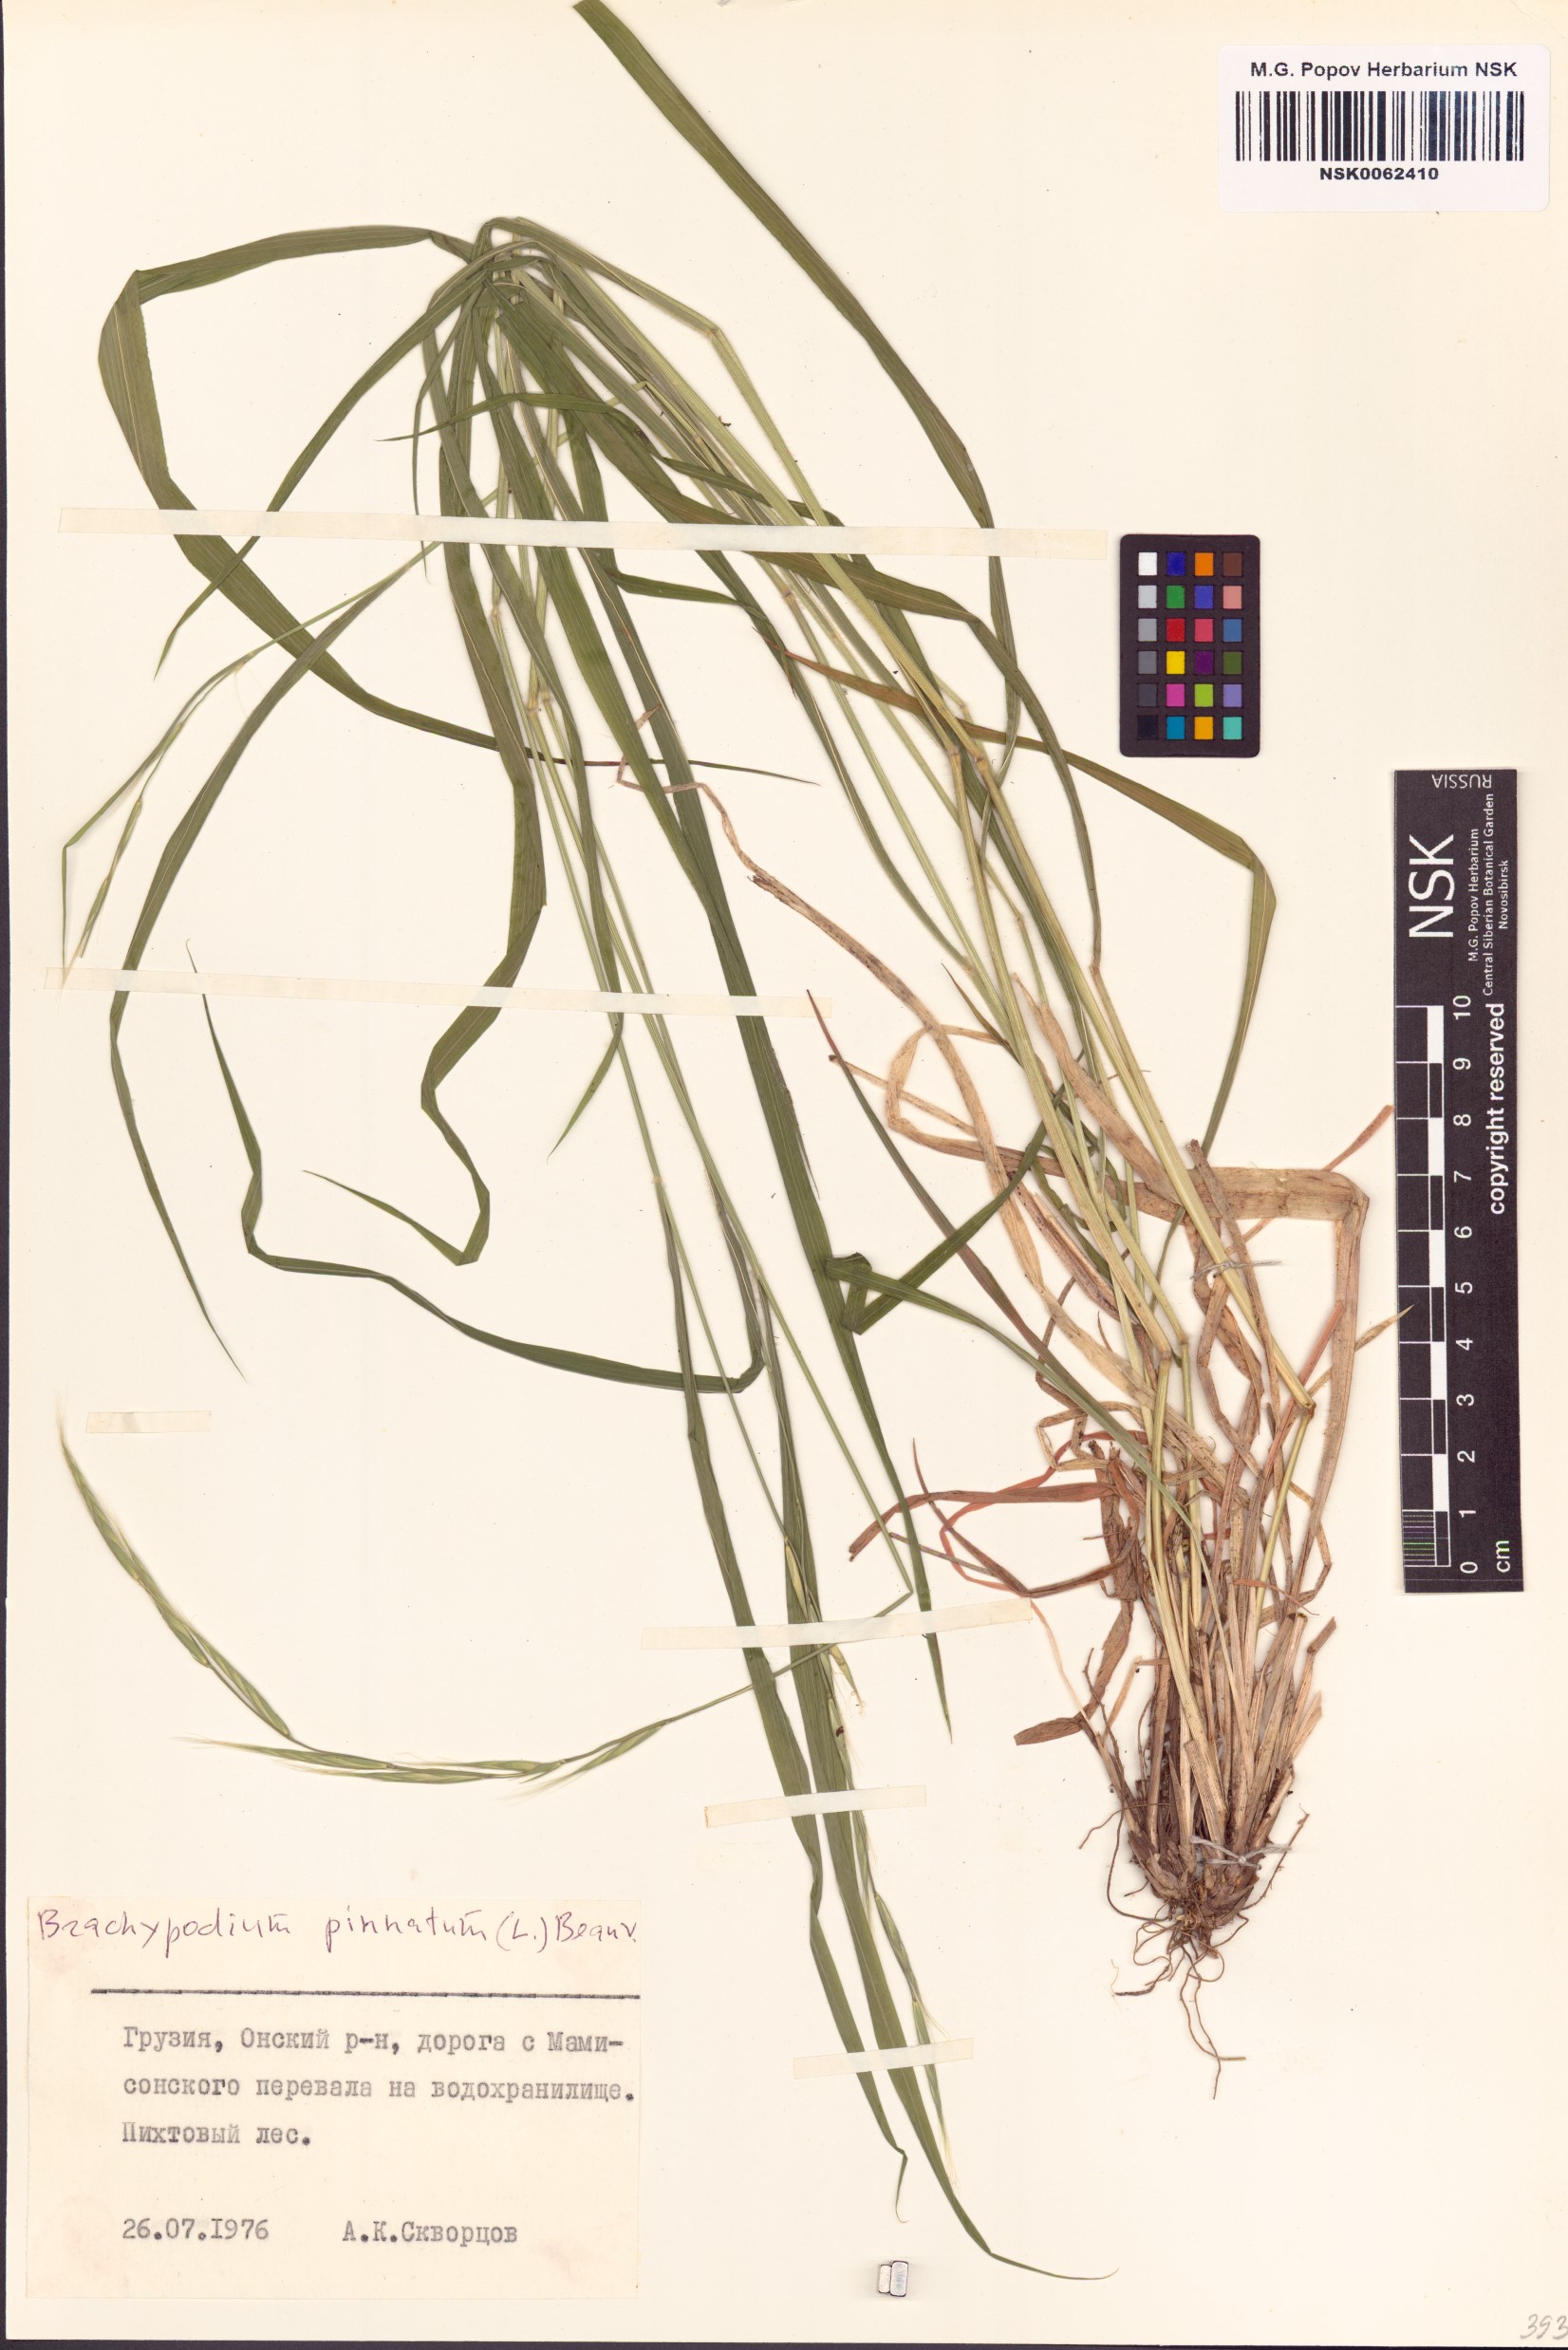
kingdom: Plantae
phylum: Tracheophyta
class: Liliopsida
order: Poales
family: Poaceae
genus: Brachypodium
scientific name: Brachypodium pinnatum
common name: Tor grass
